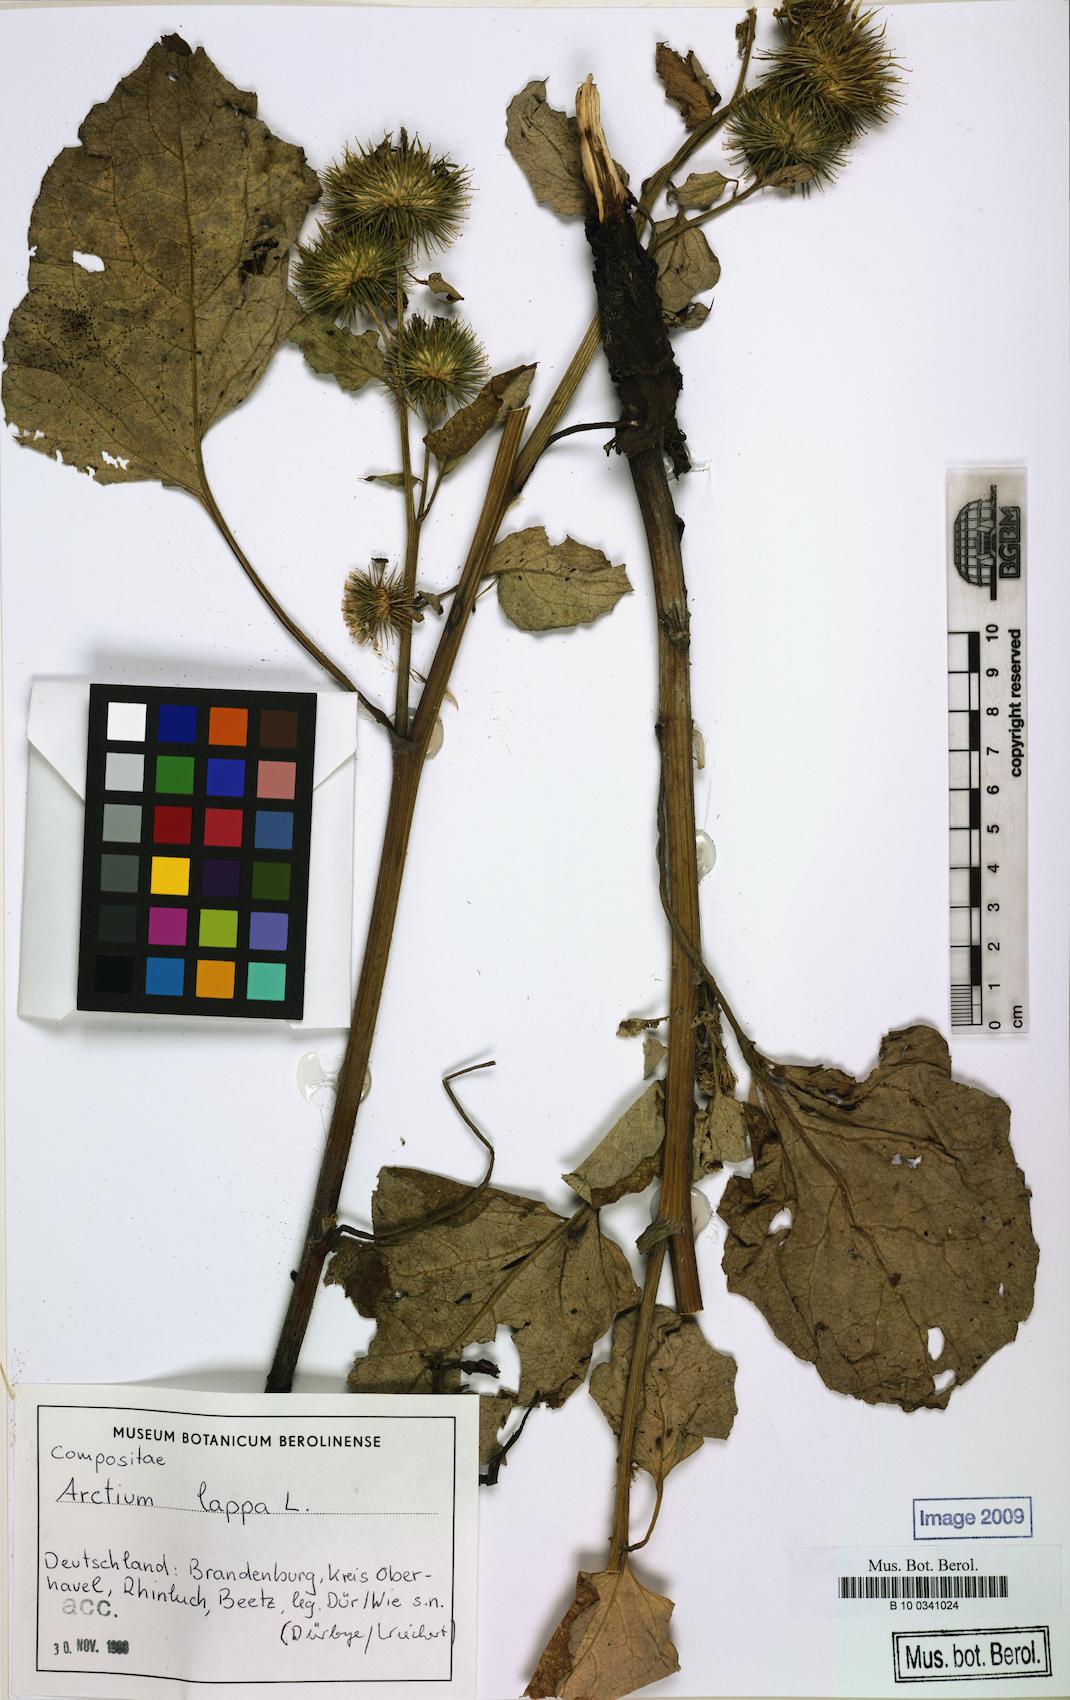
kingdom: Plantae
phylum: Tracheophyta
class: Magnoliopsida
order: Asterales
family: Asteraceae
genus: Arctium
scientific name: Arctium lappa
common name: Greater burdock
